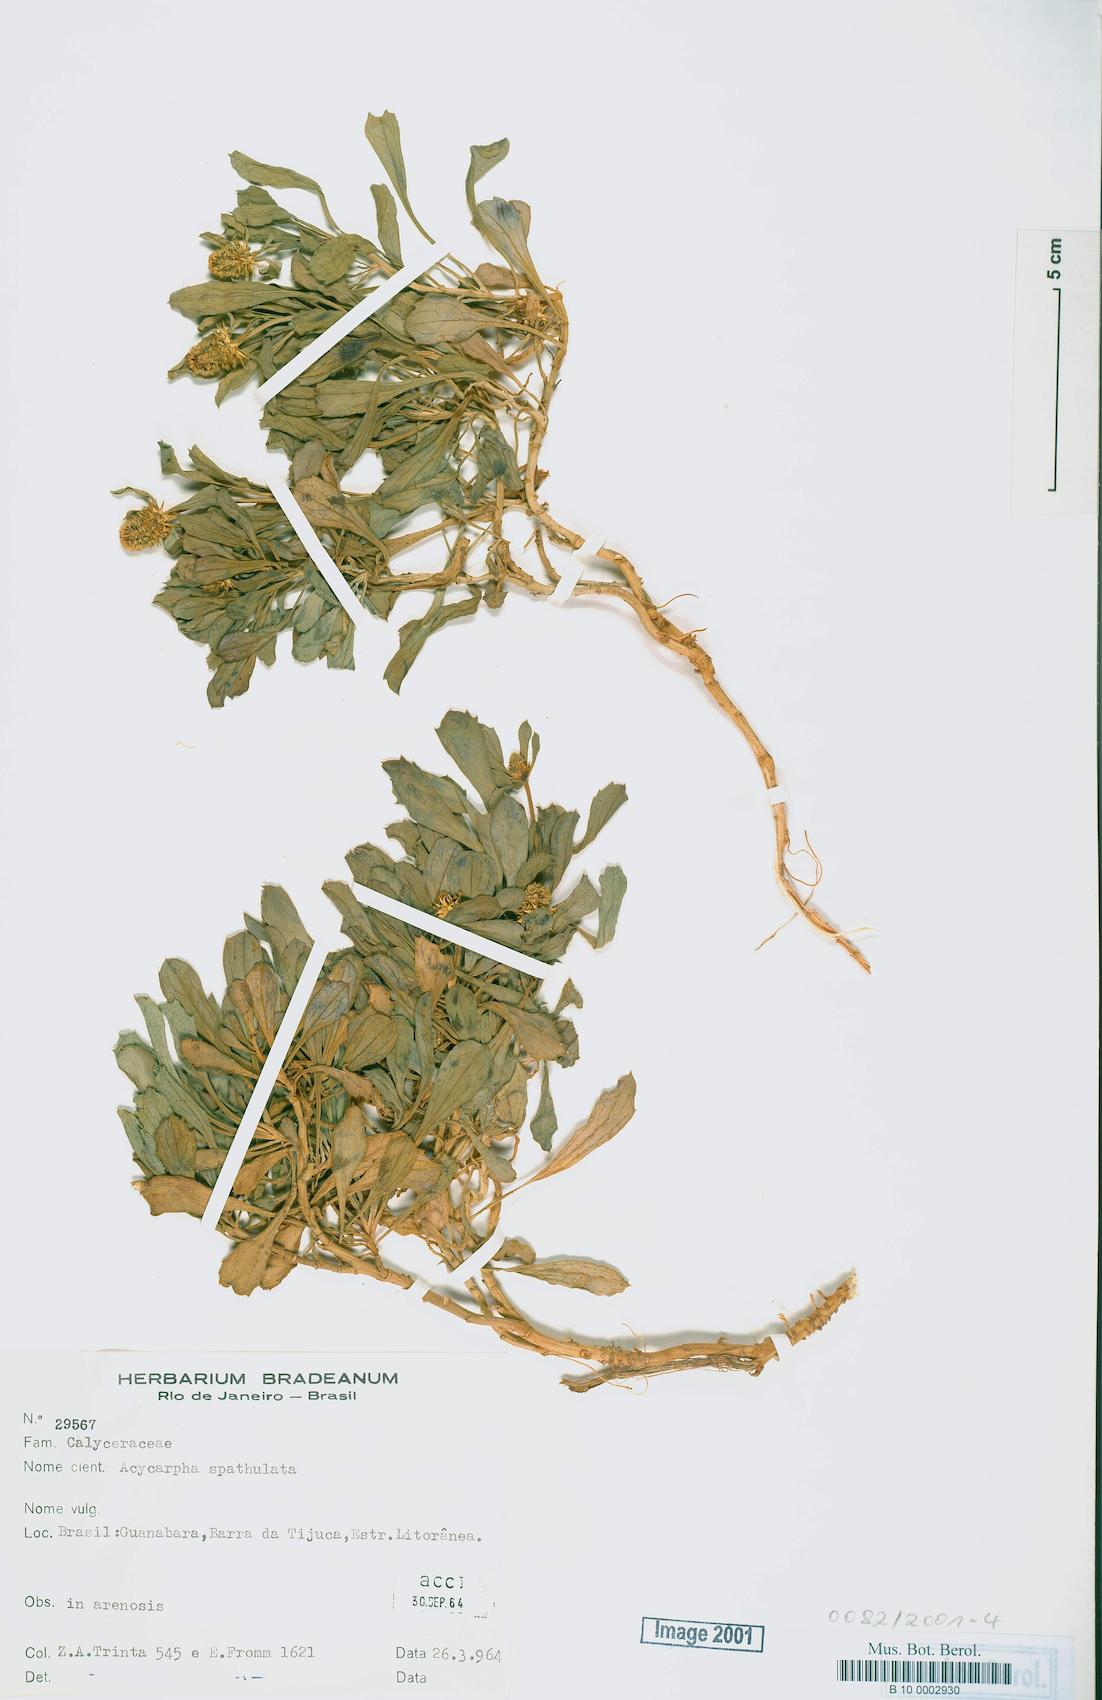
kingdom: Plantae
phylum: Tracheophyta
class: Magnoliopsida
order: Asterales
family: Calyceraceae
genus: Acicarpha
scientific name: Acicarpha spathulata
